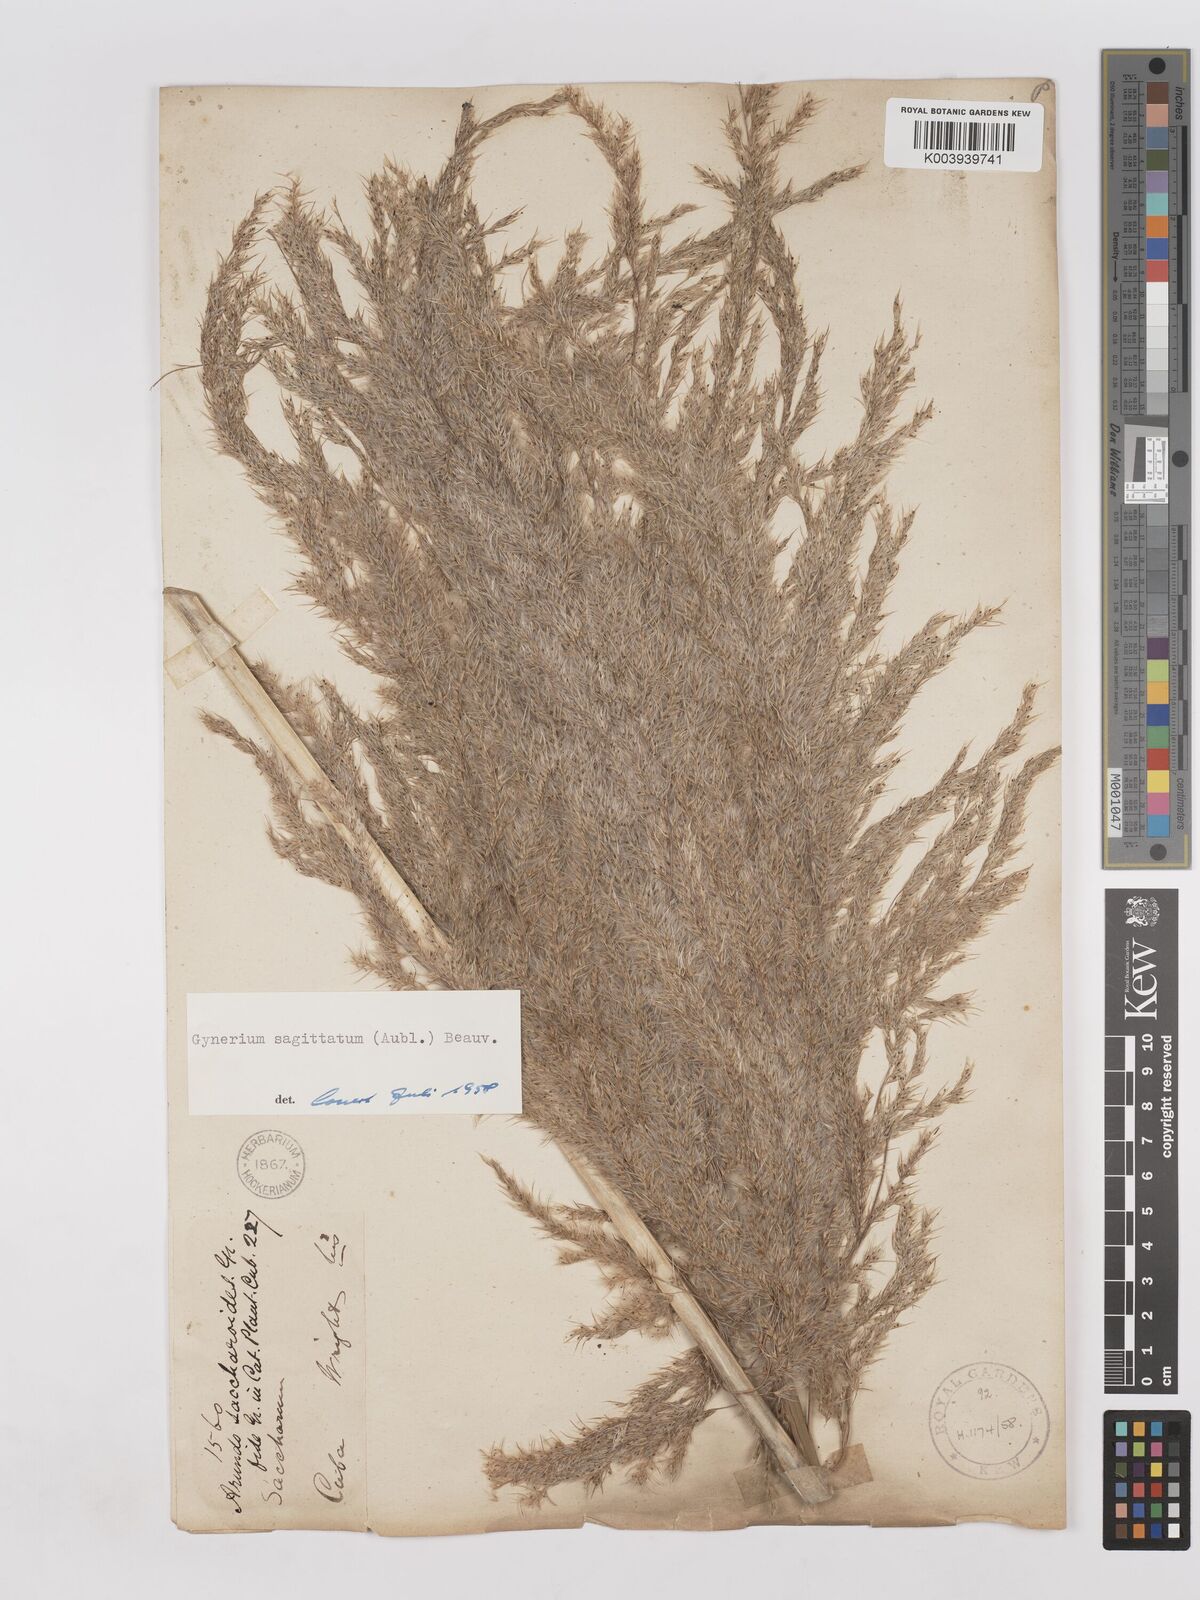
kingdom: Plantae
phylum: Tracheophyta
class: Liliopsida
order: Poales
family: Poaceae
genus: Gynerium
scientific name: Gynerium sagittatum
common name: Wild cane
